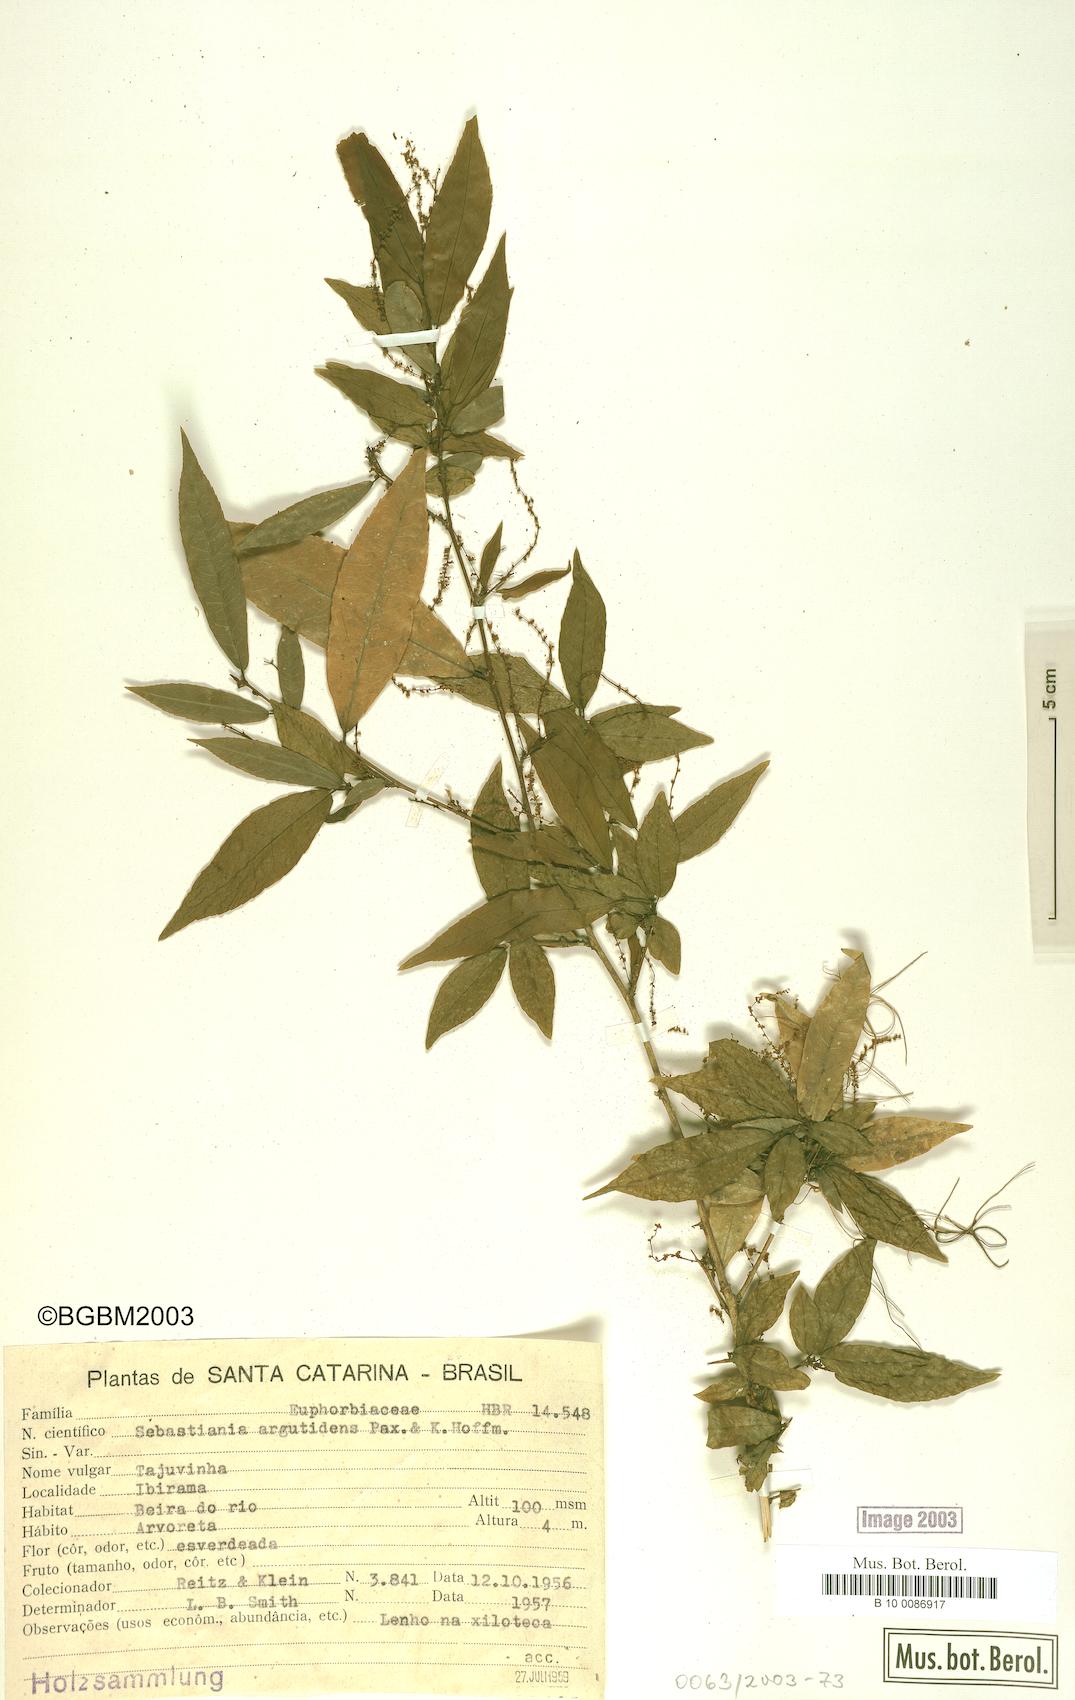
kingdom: Plantae
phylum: Tracheophyta
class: Magnoliopsida
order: Malpighiales
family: Euphorbiaceae
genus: Sebastiania
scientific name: Sebastiania argutidens
